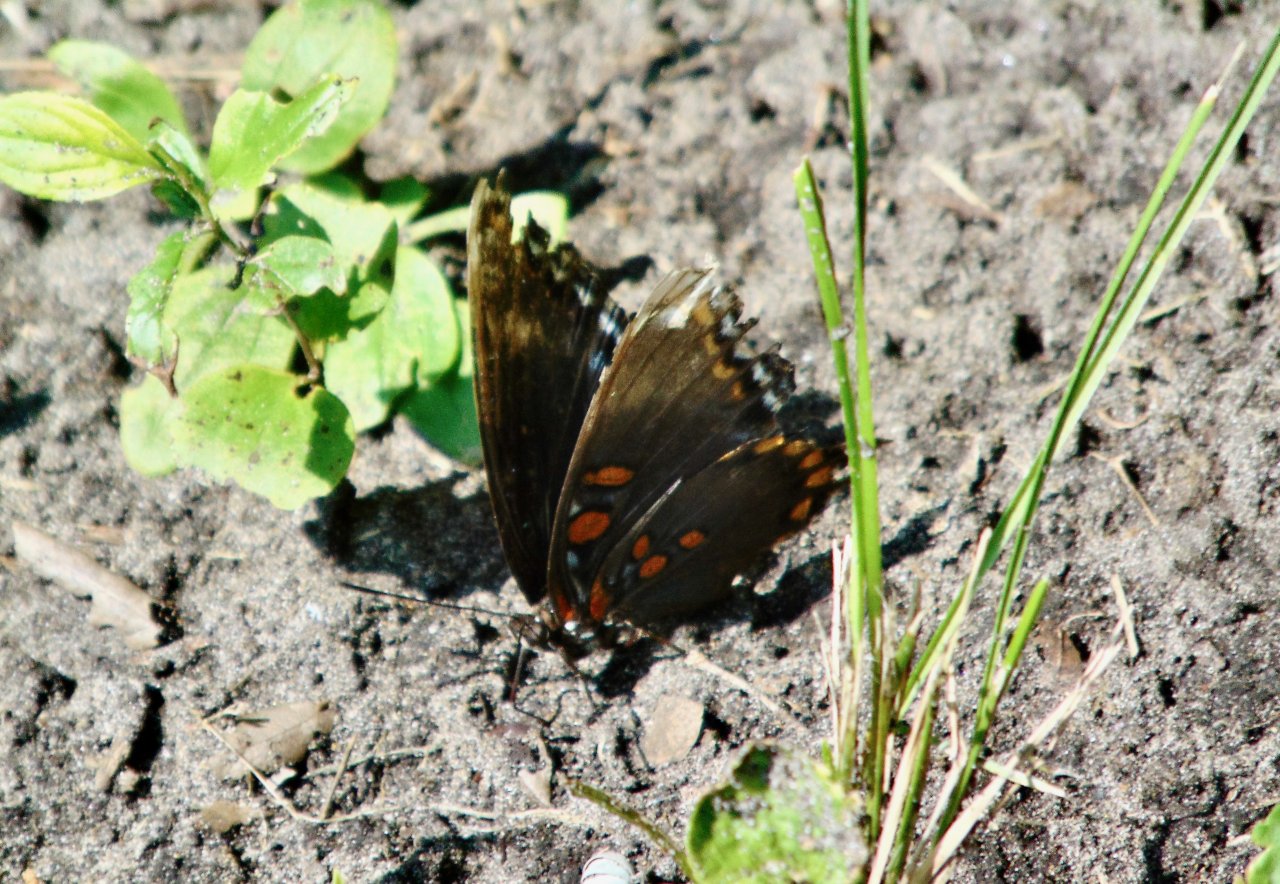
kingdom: Animalia
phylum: Arthropoda
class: Insecta
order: Lepidoptera
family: Nymphalidae
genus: Limenitis
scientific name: Limenitis astyanax
